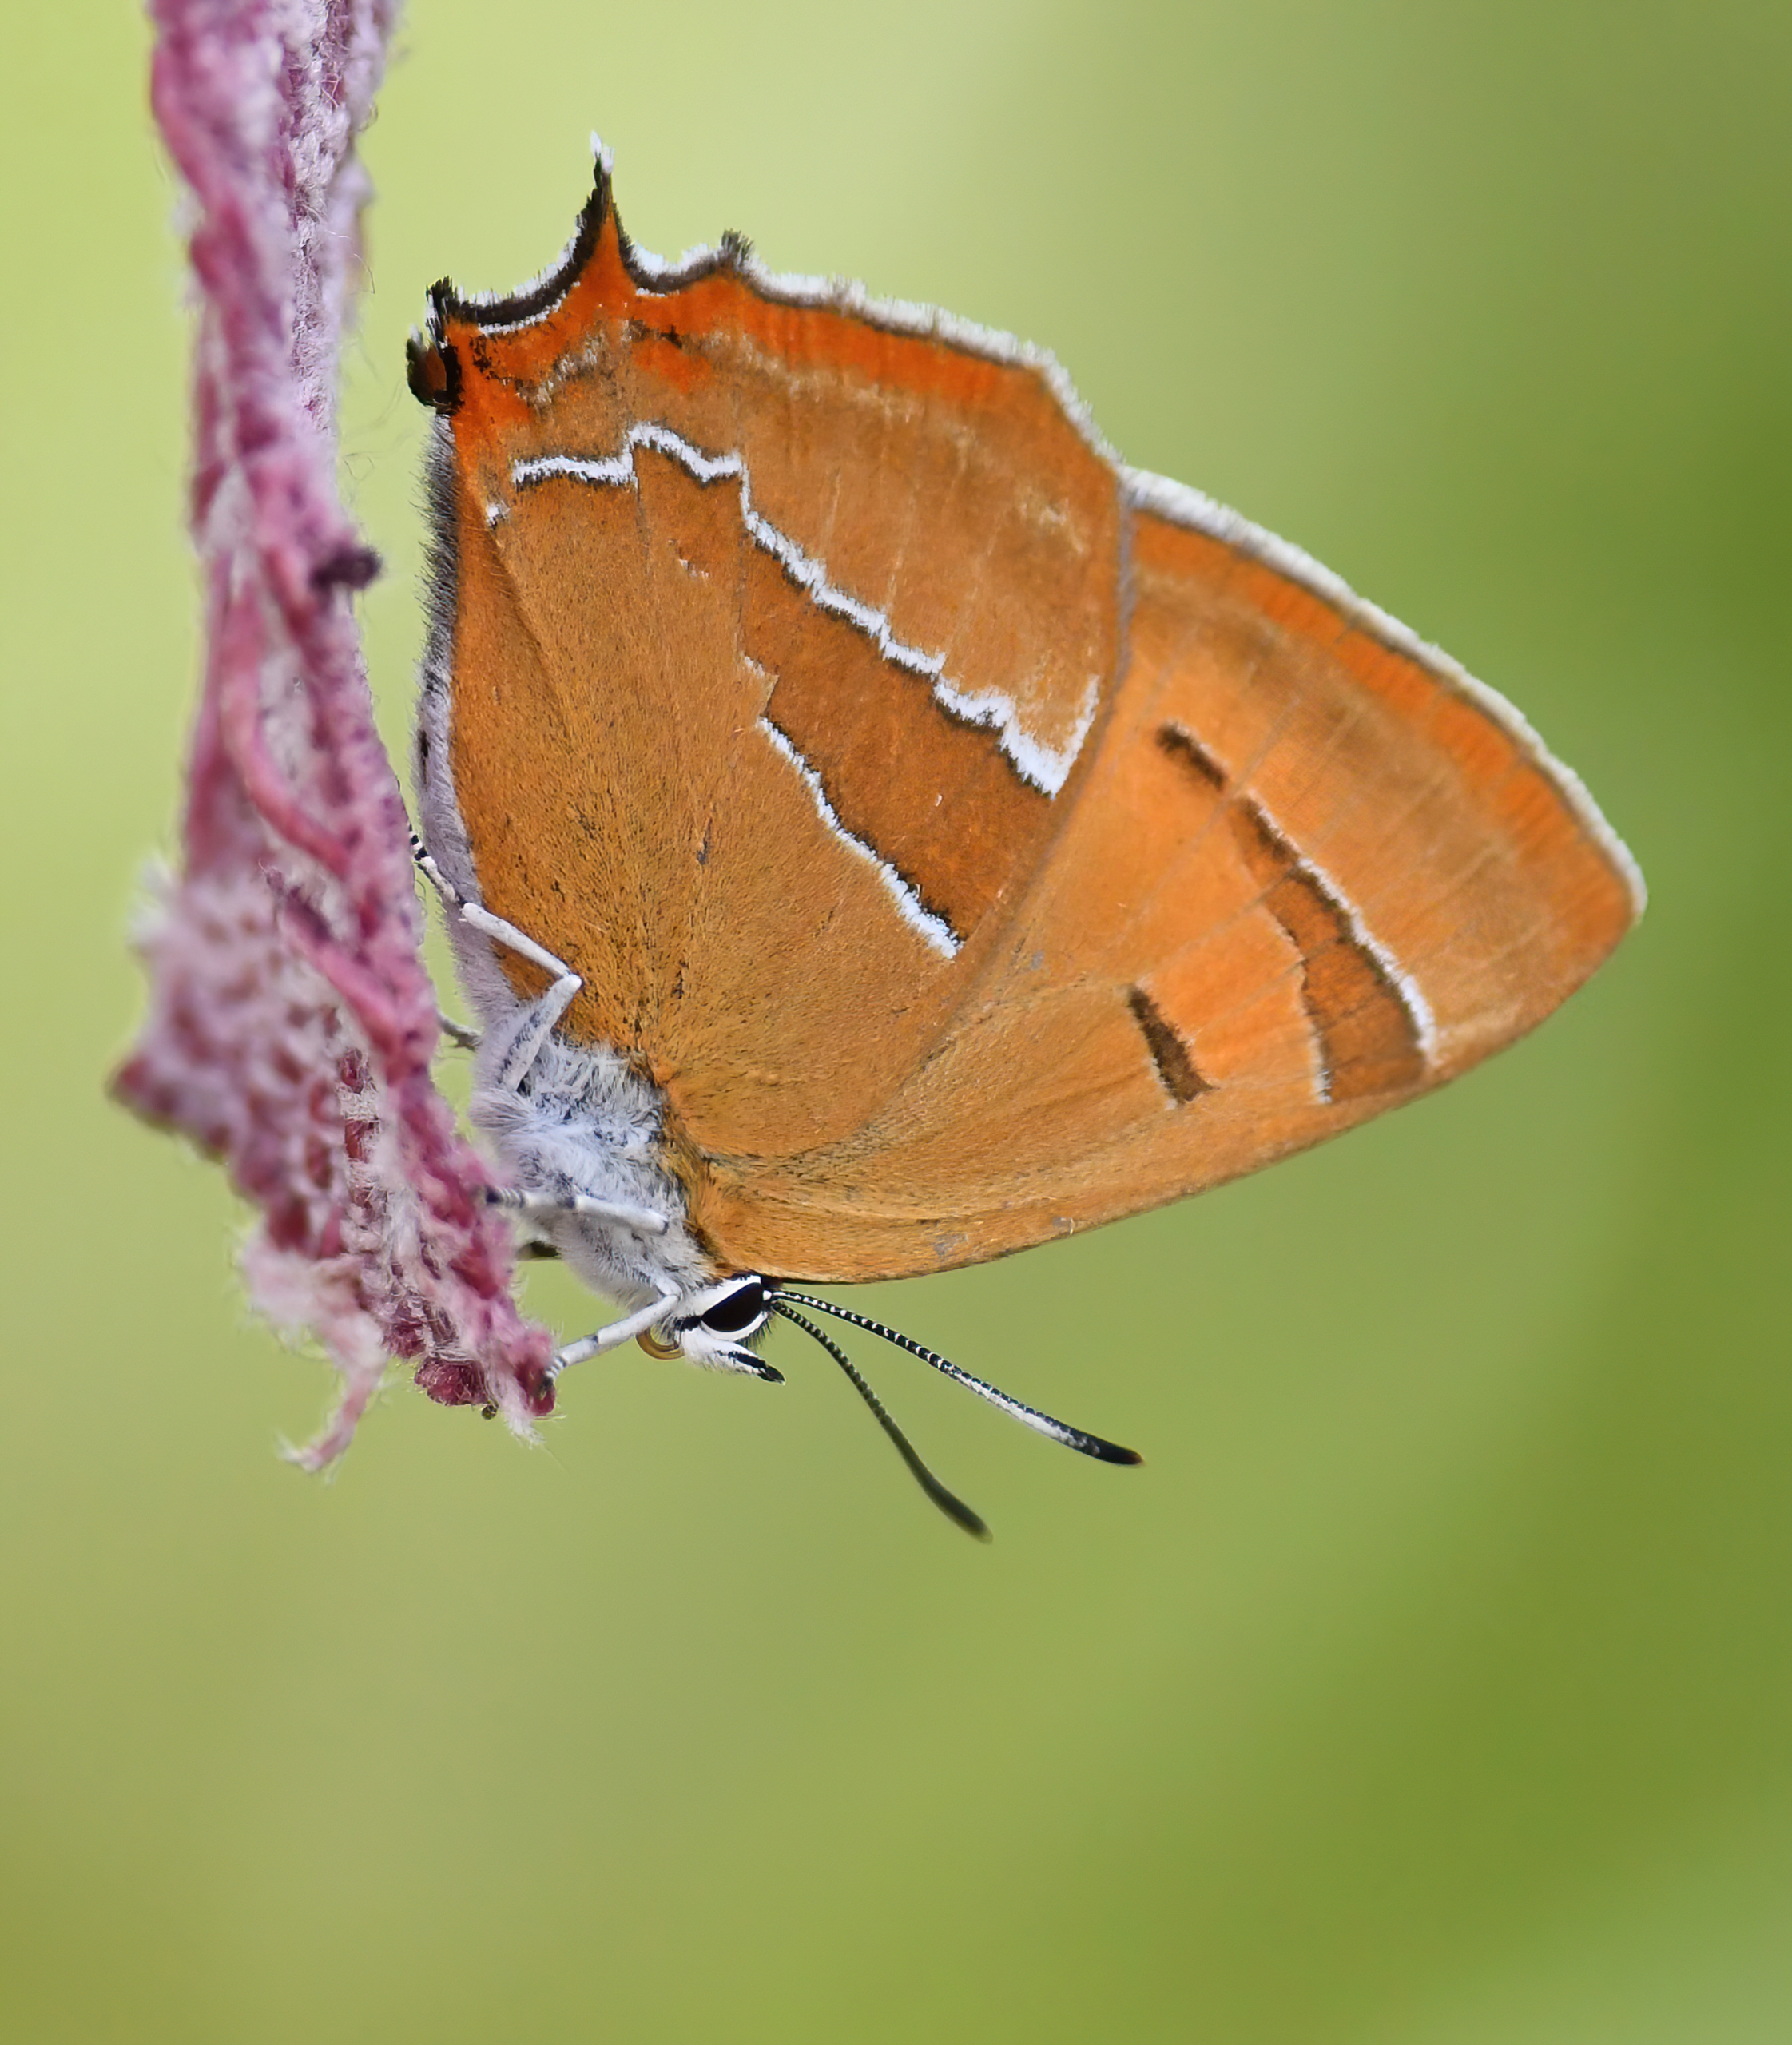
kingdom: Animalia
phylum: Arthropoda
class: Insecta
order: Lepidoptera
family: Lycaenidae
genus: Thecla
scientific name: Thecla betulae
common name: Guldhale
